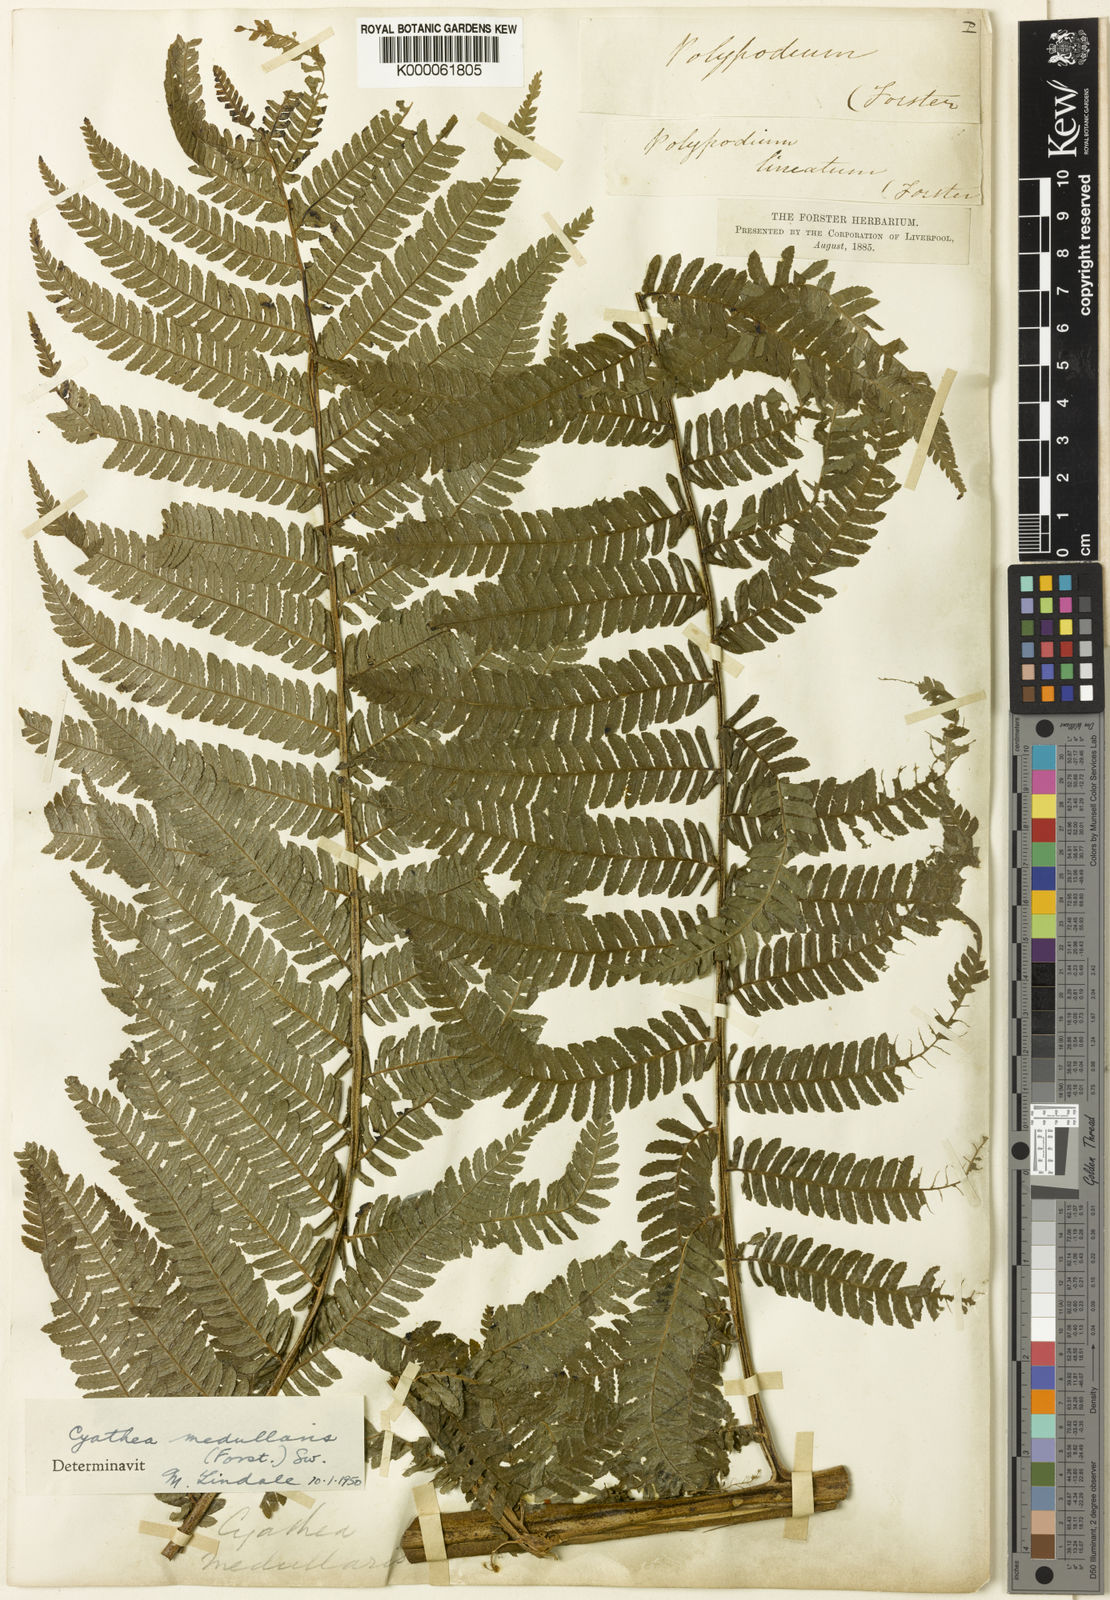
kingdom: Plantae
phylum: Tracheophyta
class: Polypodiopsida
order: Cyatheales
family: Cyatheaceae
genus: Sphaeropteris
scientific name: Sphaeropteris medullaris
